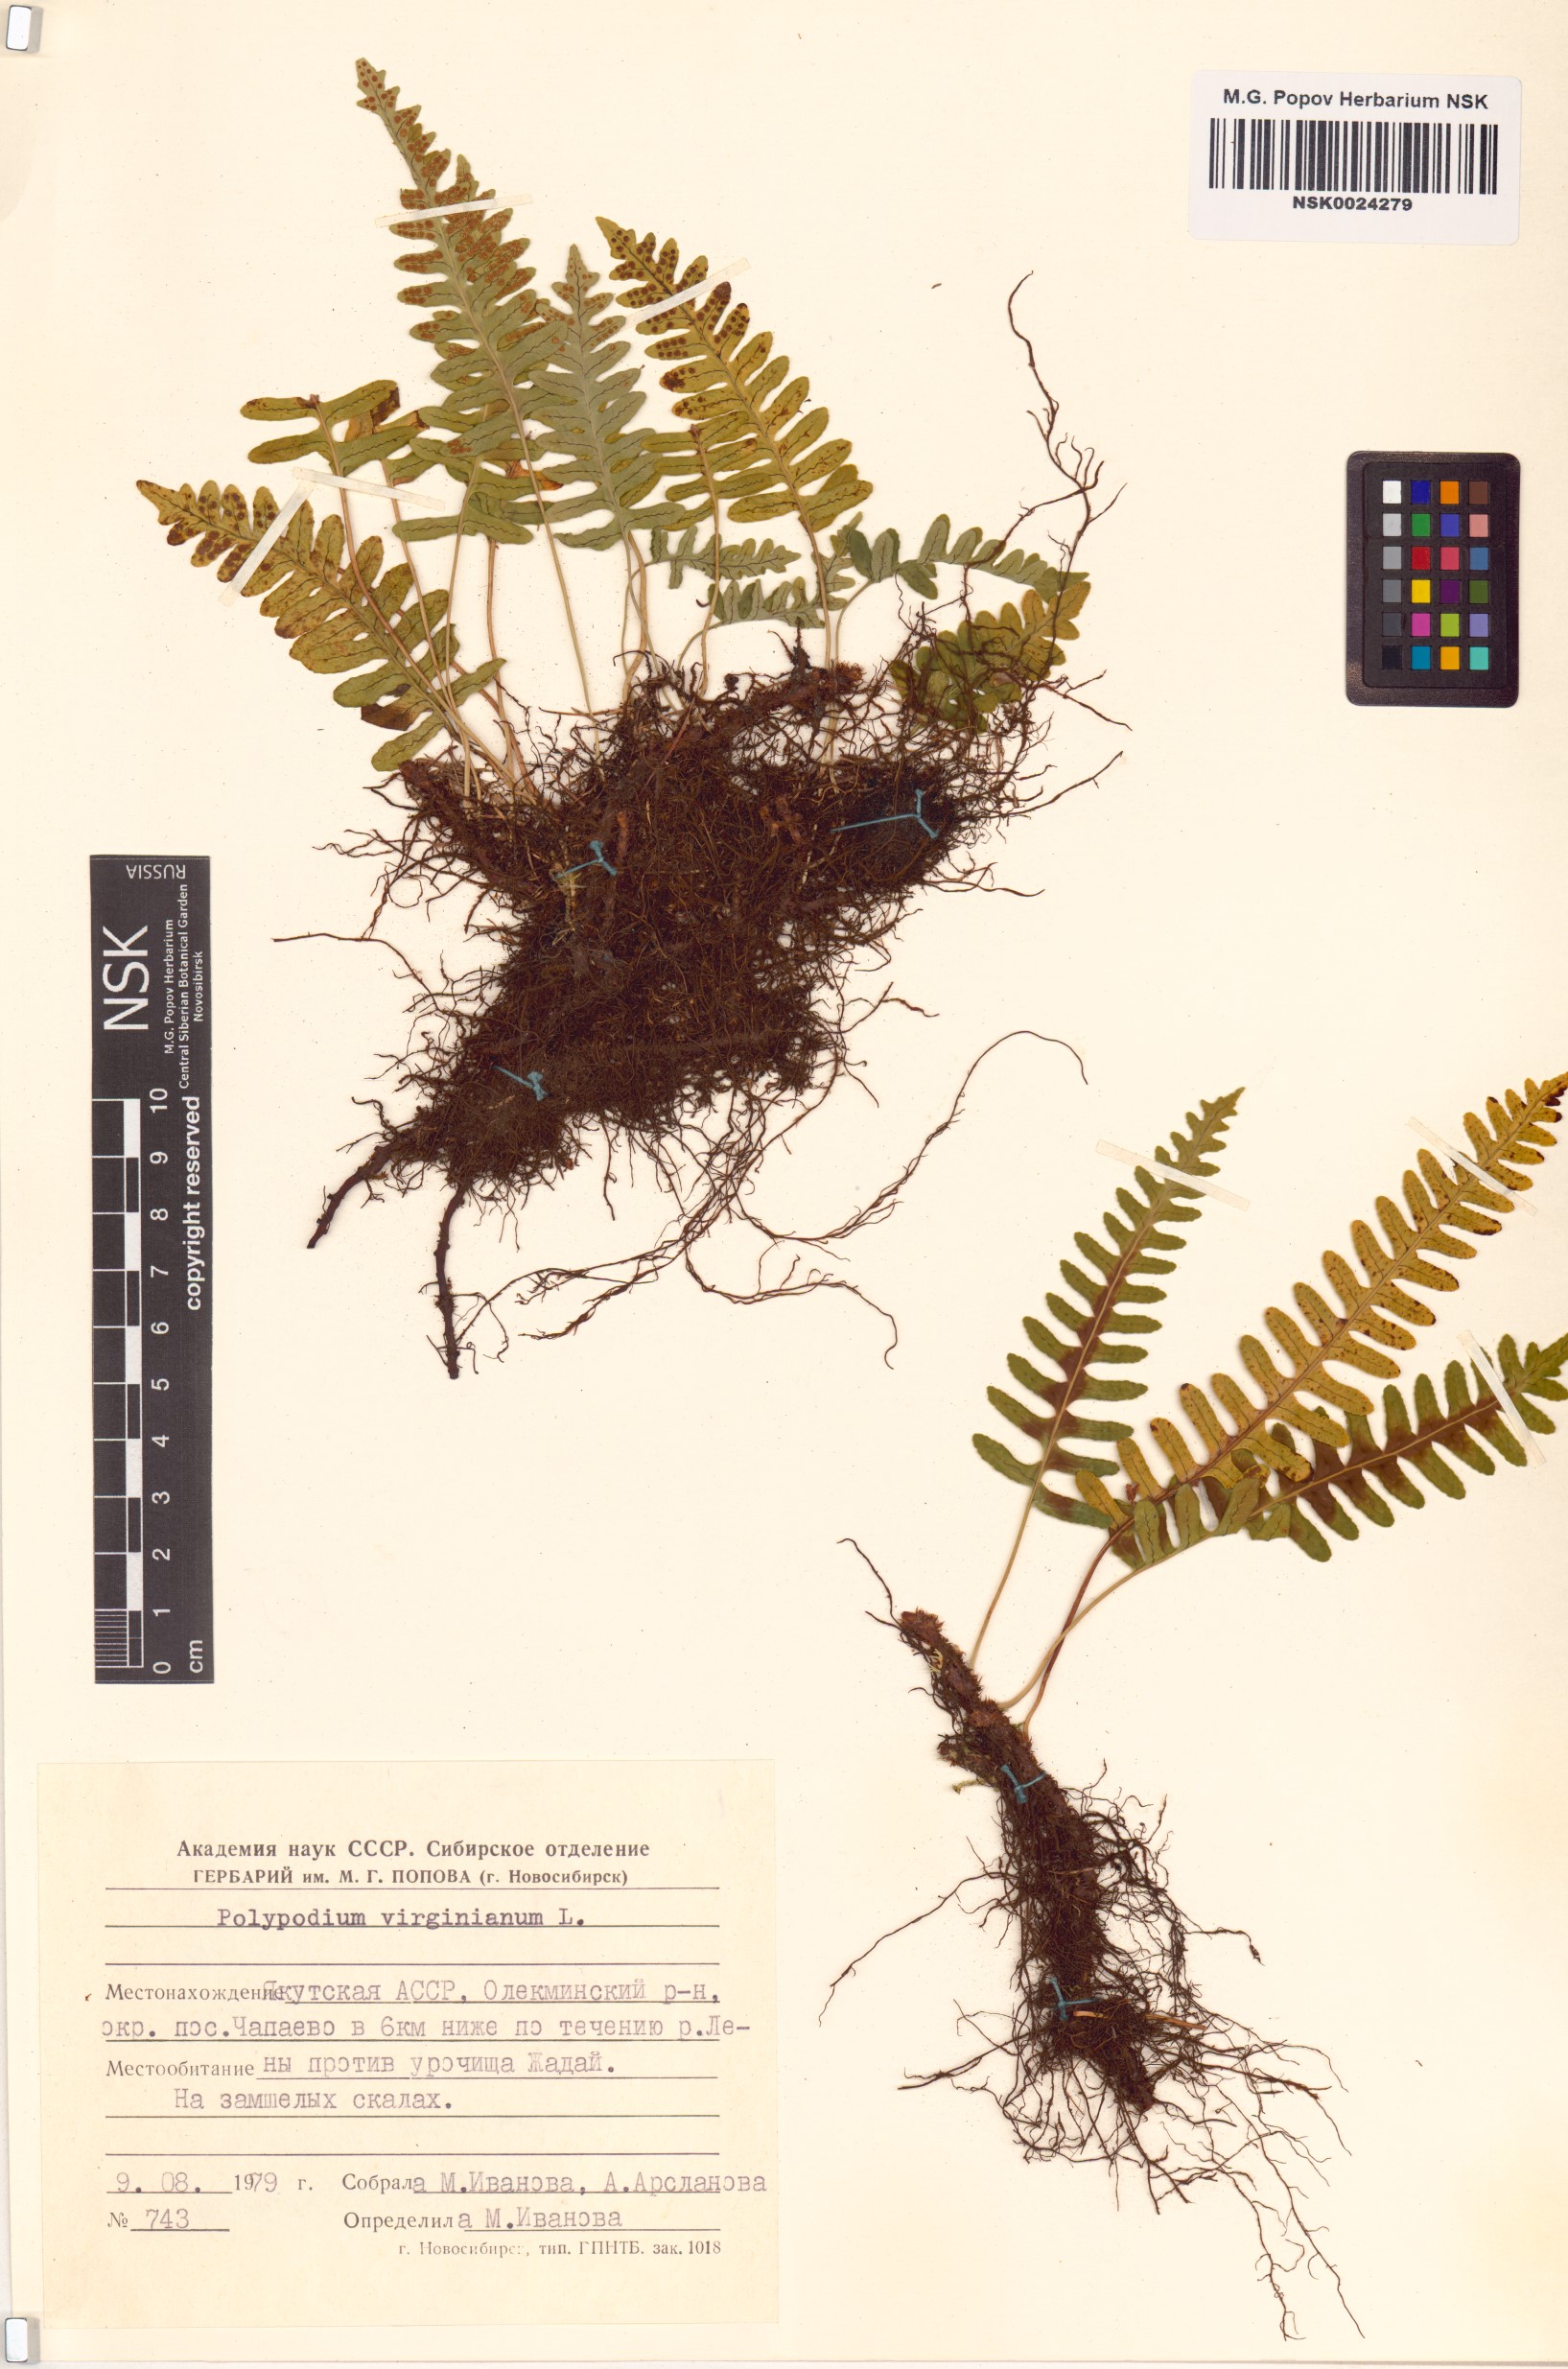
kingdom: Plantae
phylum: Tracheophyta
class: Polypodiopsida
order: Polypodiales
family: Polypodiaceae
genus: Polypodium
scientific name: Polypodium virginianum
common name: American wall fern
